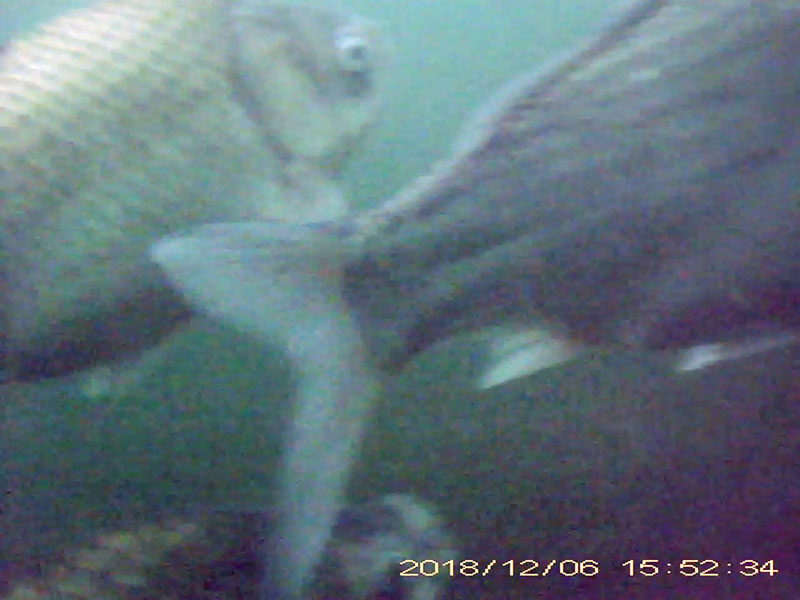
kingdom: Animalia
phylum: Chordata
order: Cypriniformes
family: Cyprinidae
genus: Carassius
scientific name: Carassius cuvieri
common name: ゲンゴロウブナ
